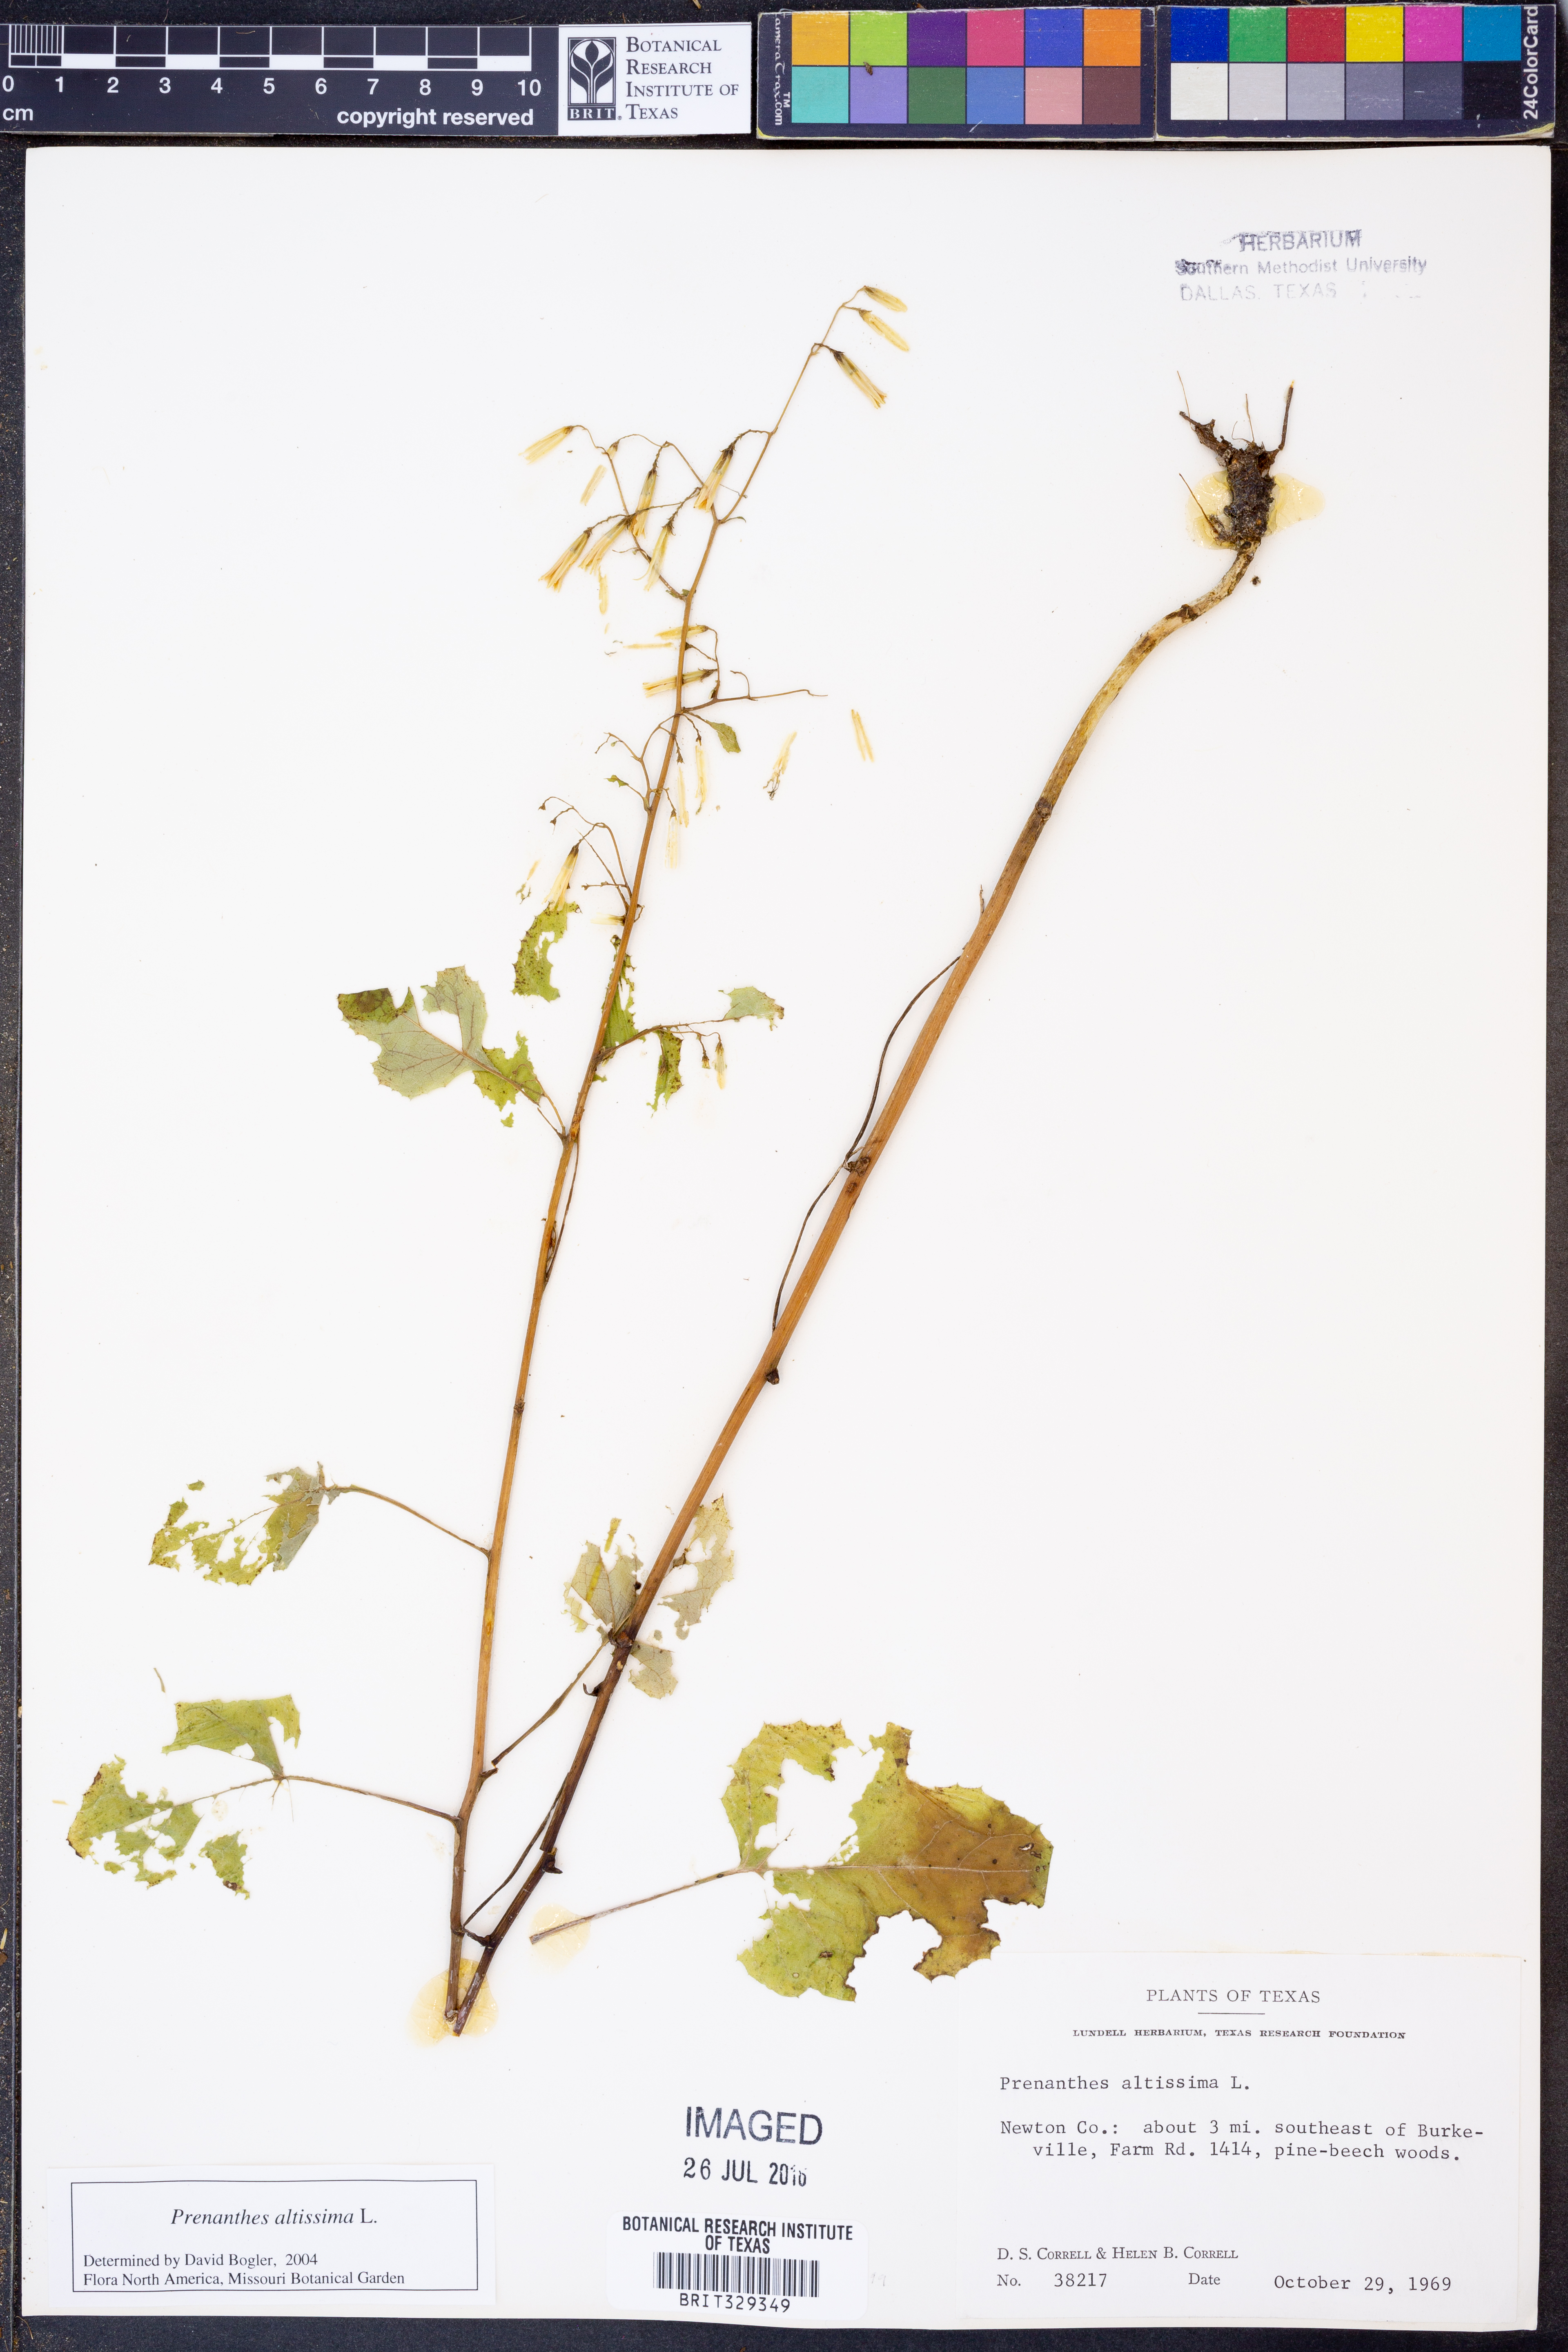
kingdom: Plantae
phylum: Tracheophyta
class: Magnoliopsida
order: Asterales
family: Asteraceae
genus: Lactuca
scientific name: Lactuca quercina
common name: Wild lettuce
